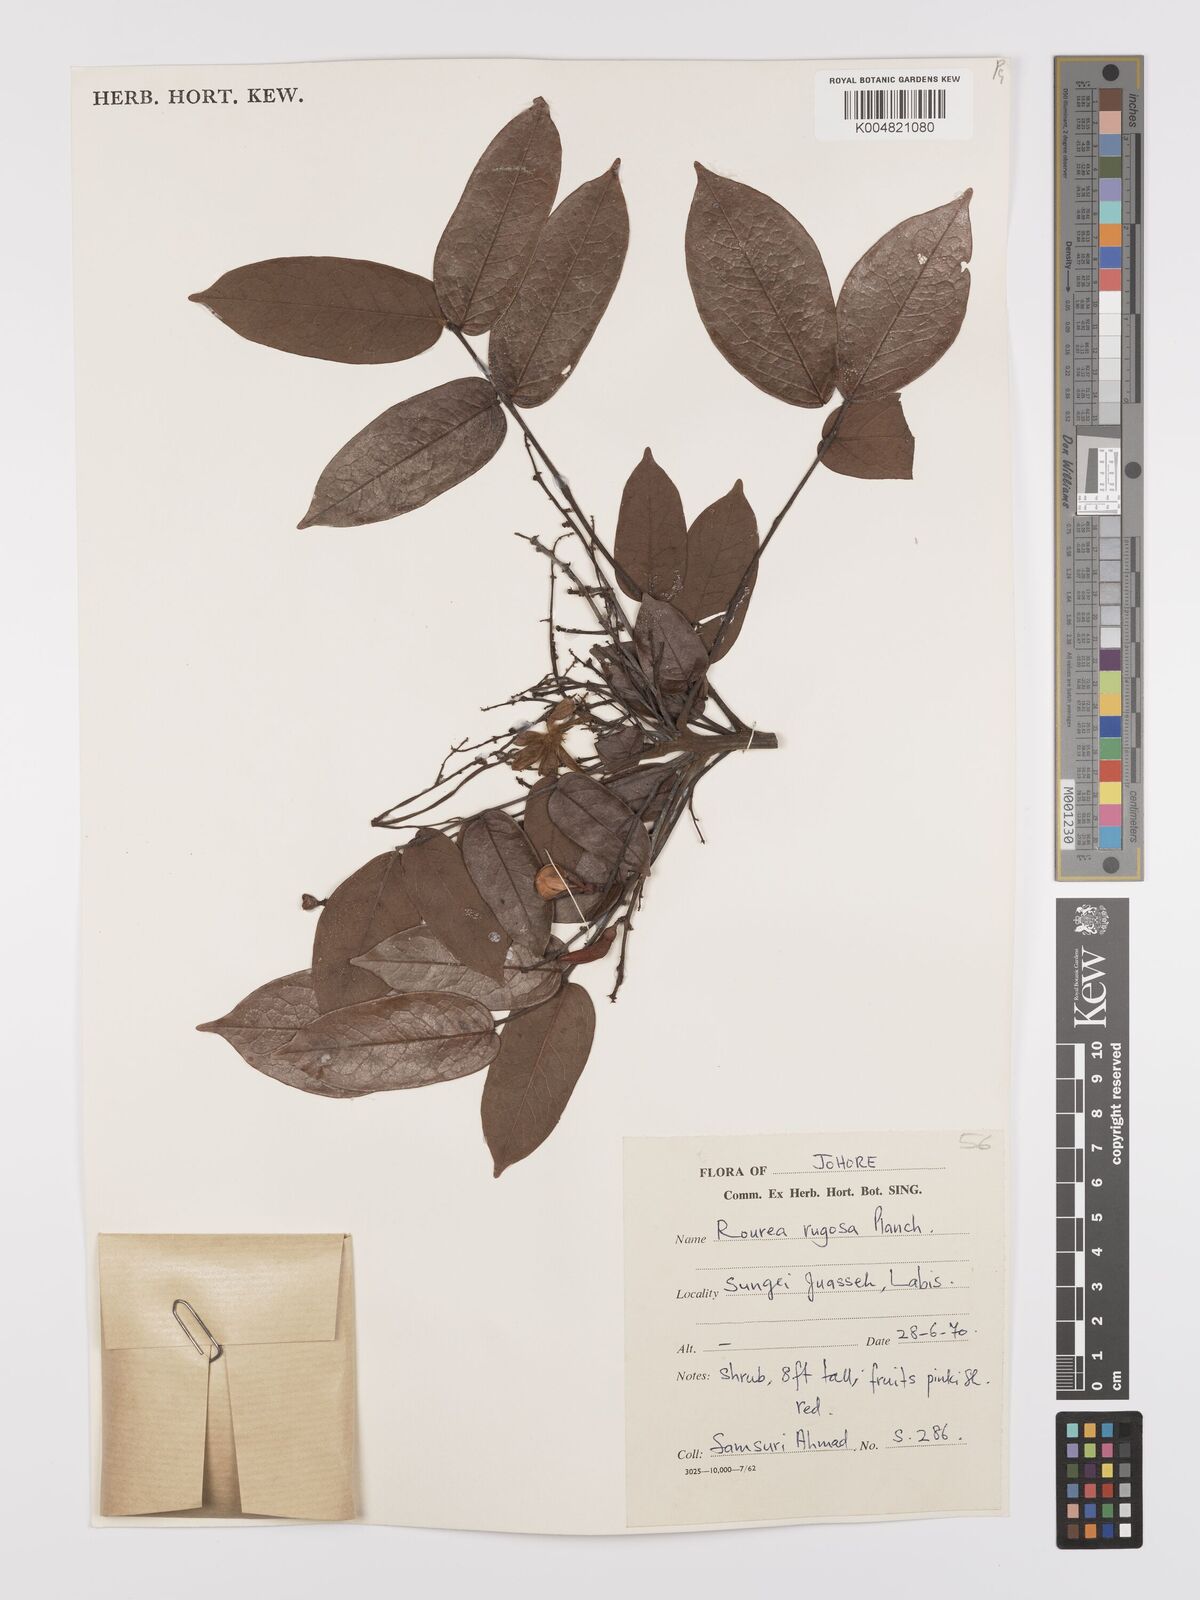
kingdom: Plantae
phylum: Tracheophyta
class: Magnoliopsida
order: Oxalidales
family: Connaraceae
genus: Rourea
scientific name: Rourea rugosa
